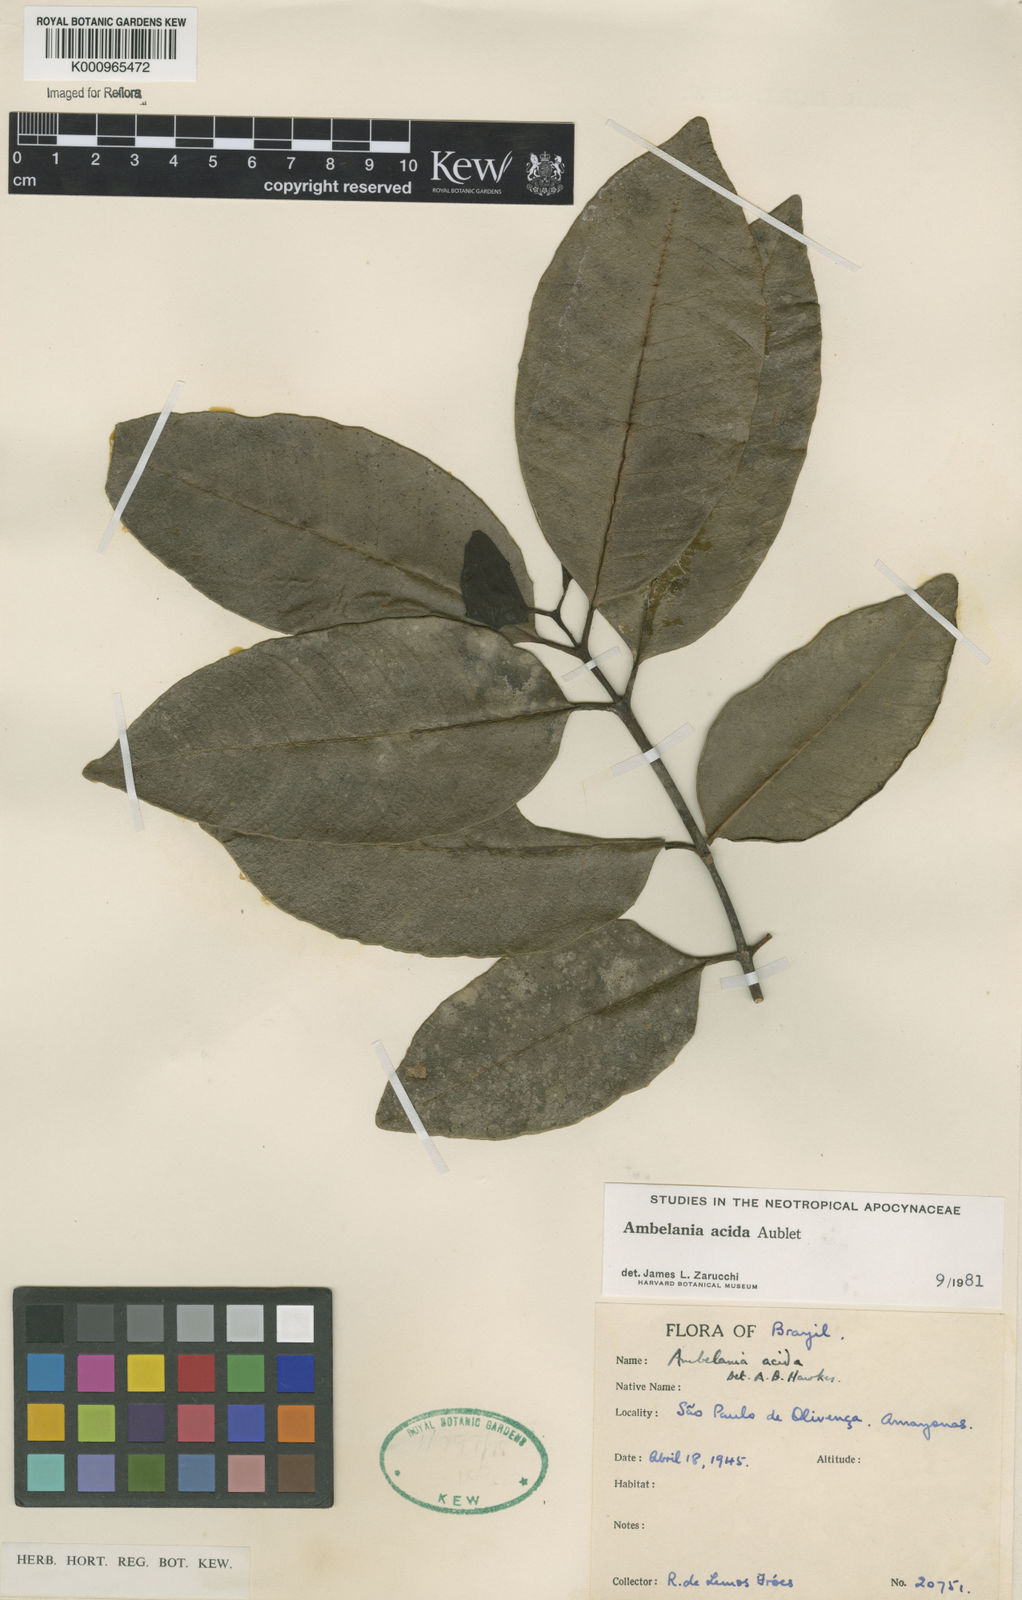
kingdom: Plantae
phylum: Tracheophyta
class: Magnoliopsida
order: Gentianales
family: Apocynaceae
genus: Ambelania
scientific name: Ambelania acida
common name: Bagasse
